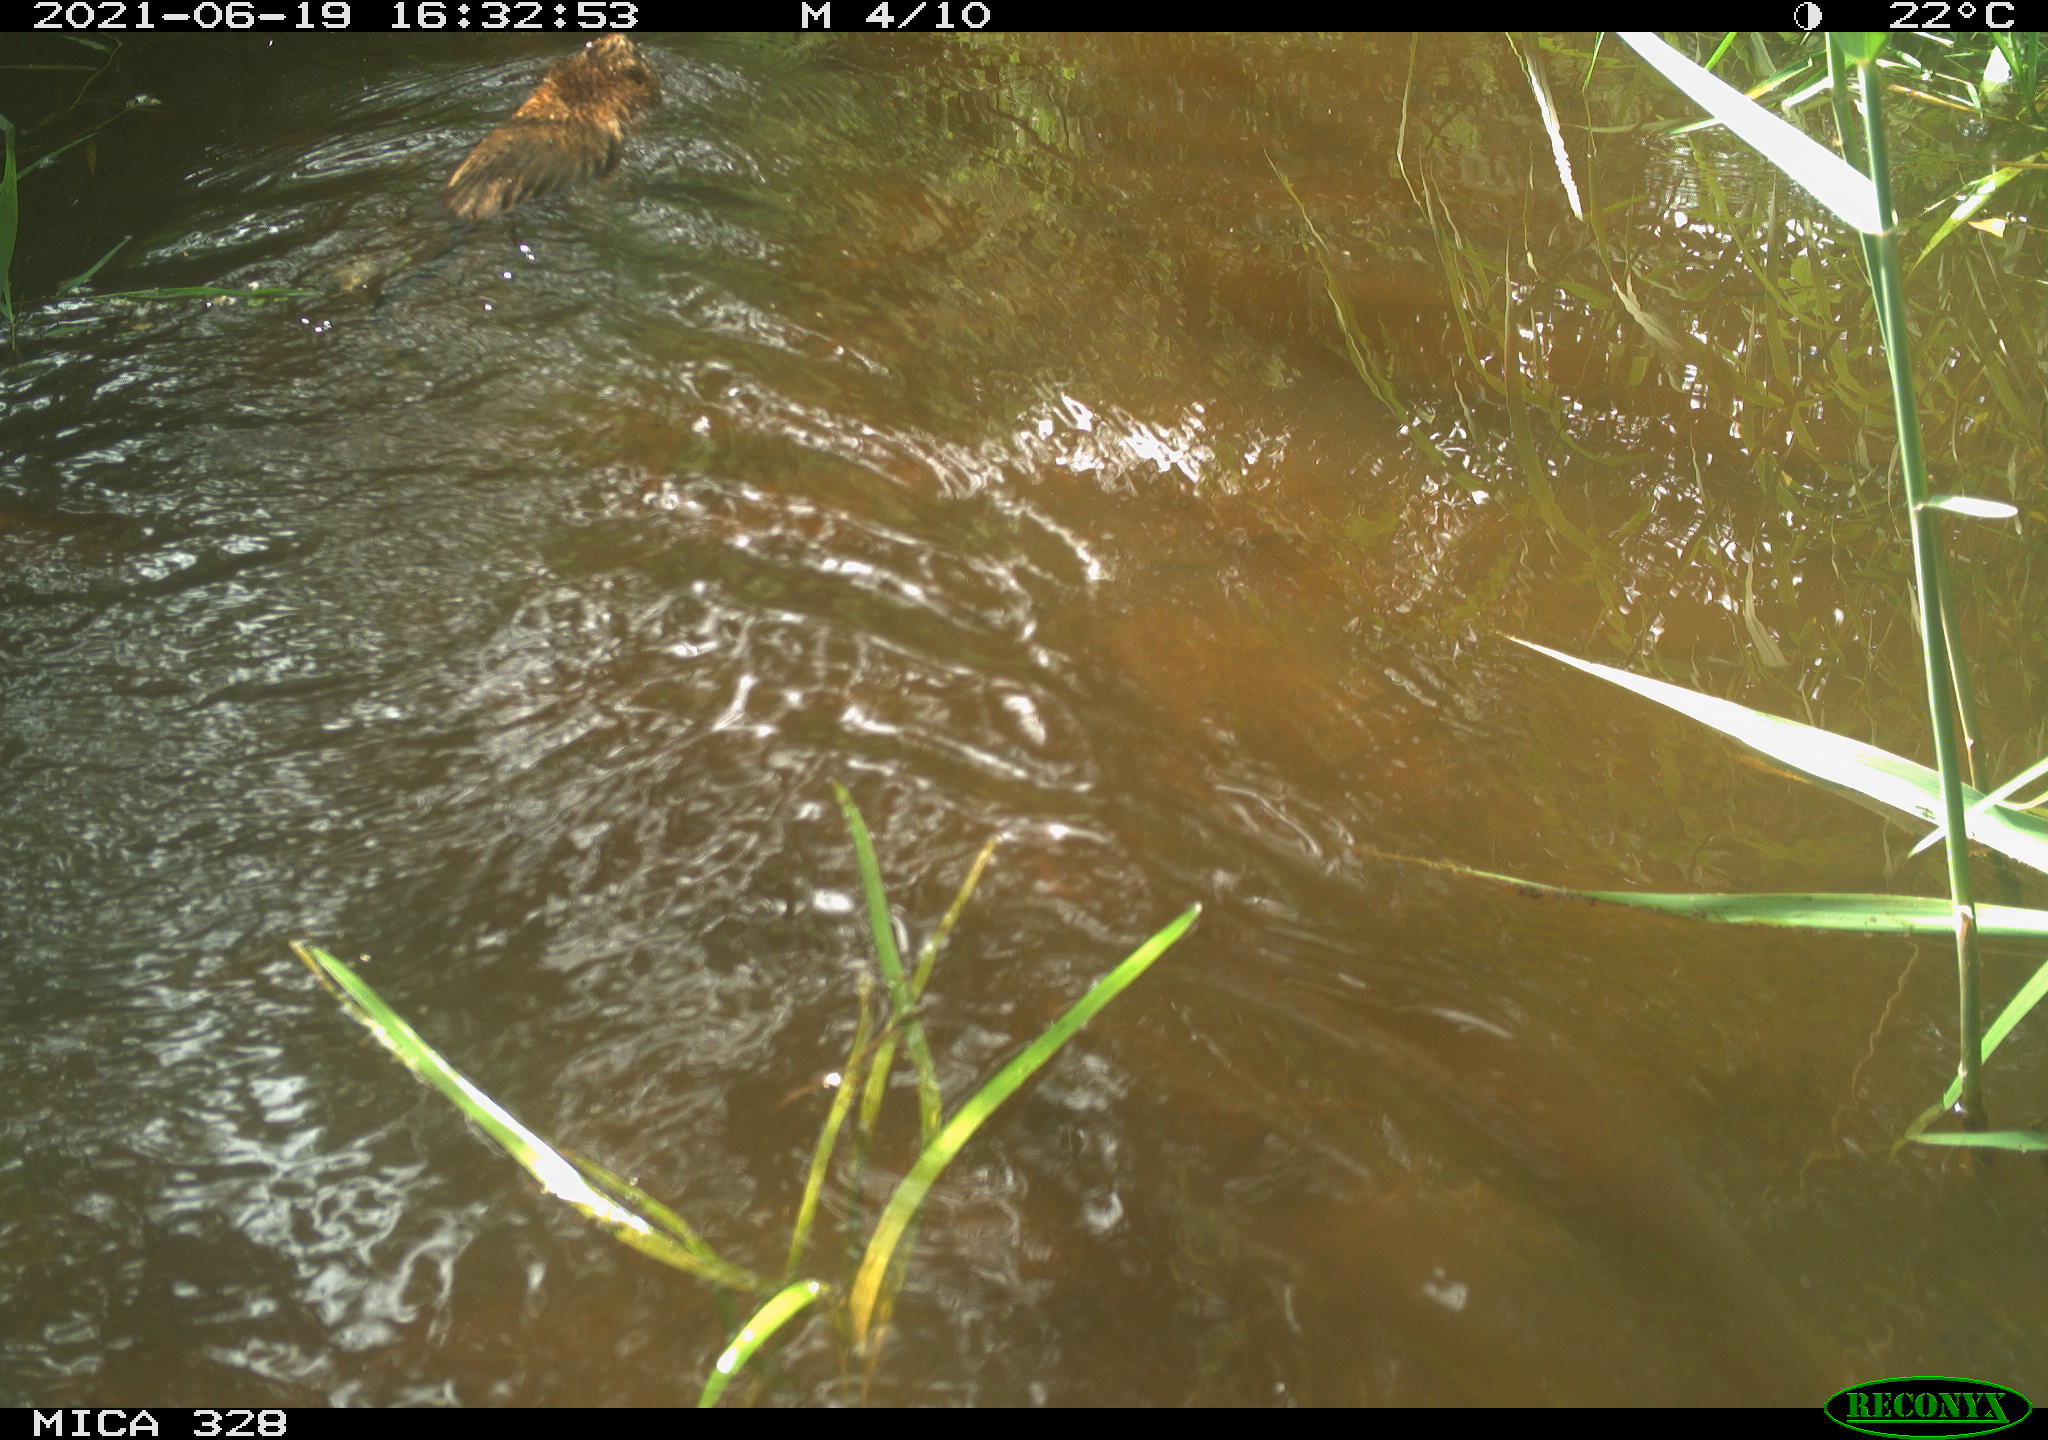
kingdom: Animalia
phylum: Chordata
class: Mammalia
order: Rodentia
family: Cricetidae
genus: Ondatra
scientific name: Ondatra zibethicus
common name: Muskrat
